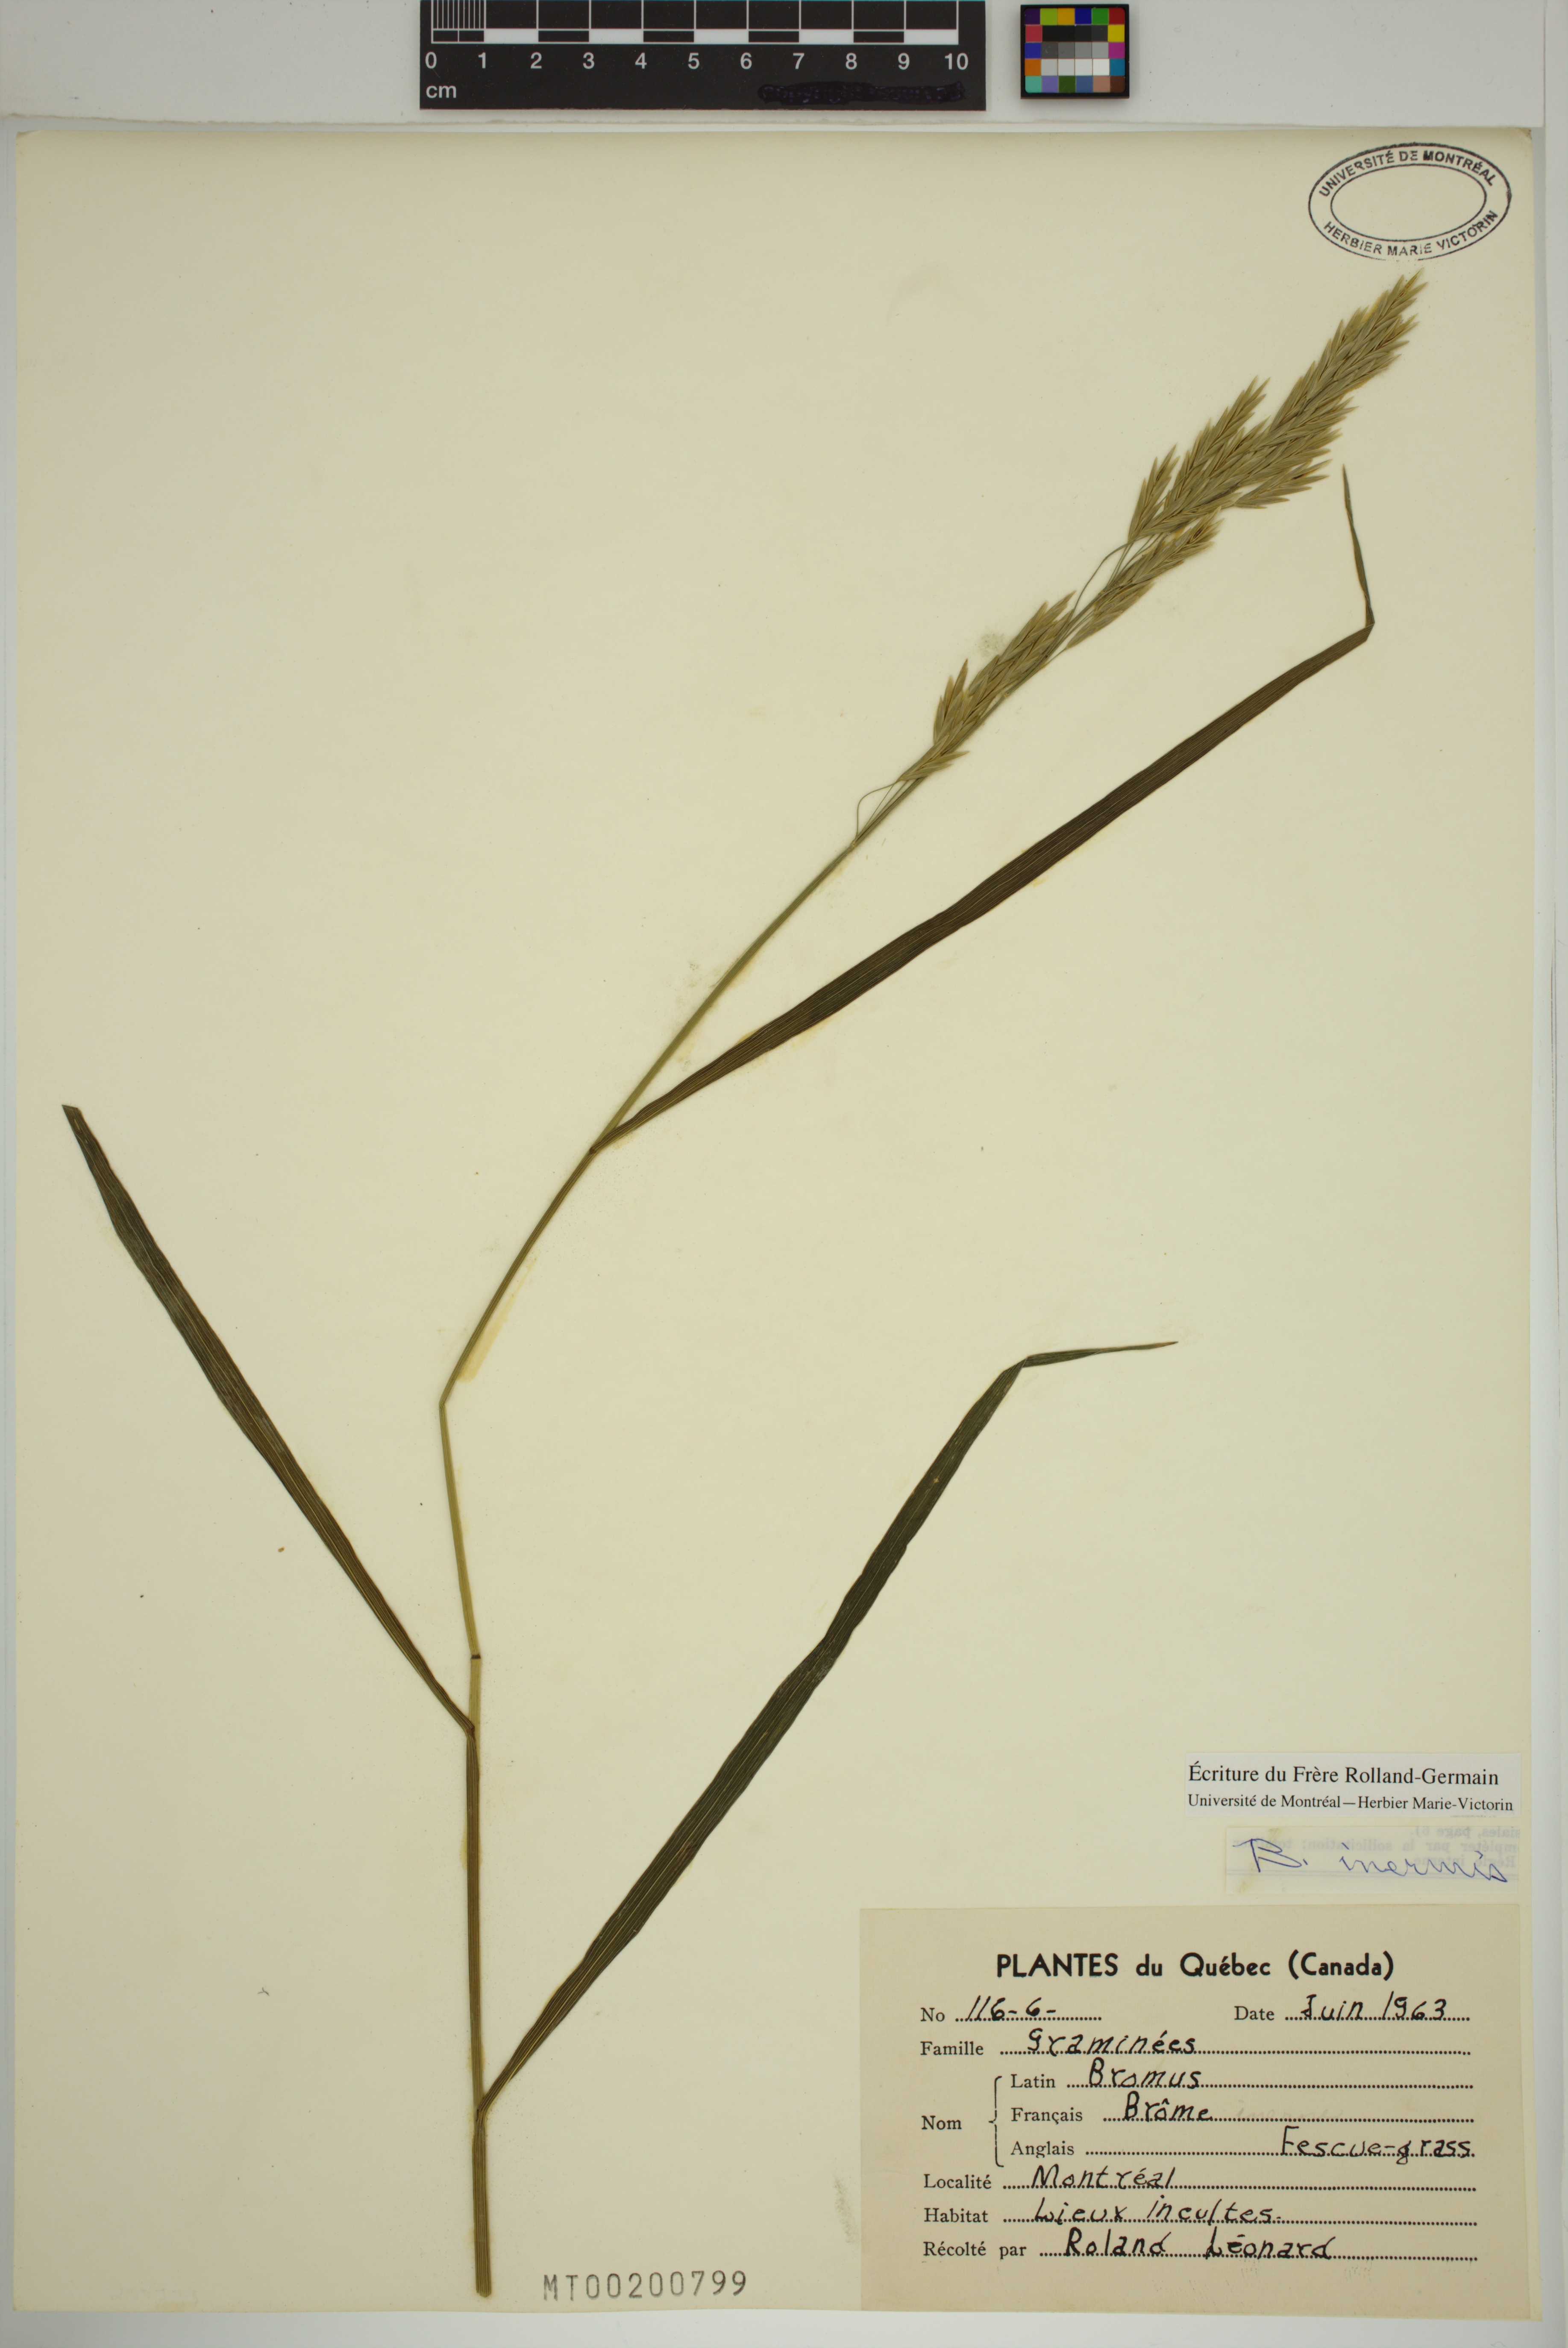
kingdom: Plantae
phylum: Tracheophyta
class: Liliopsida
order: Poales
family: Poaceae
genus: Bromus
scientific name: Bromus inermis
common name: Smooth brome
